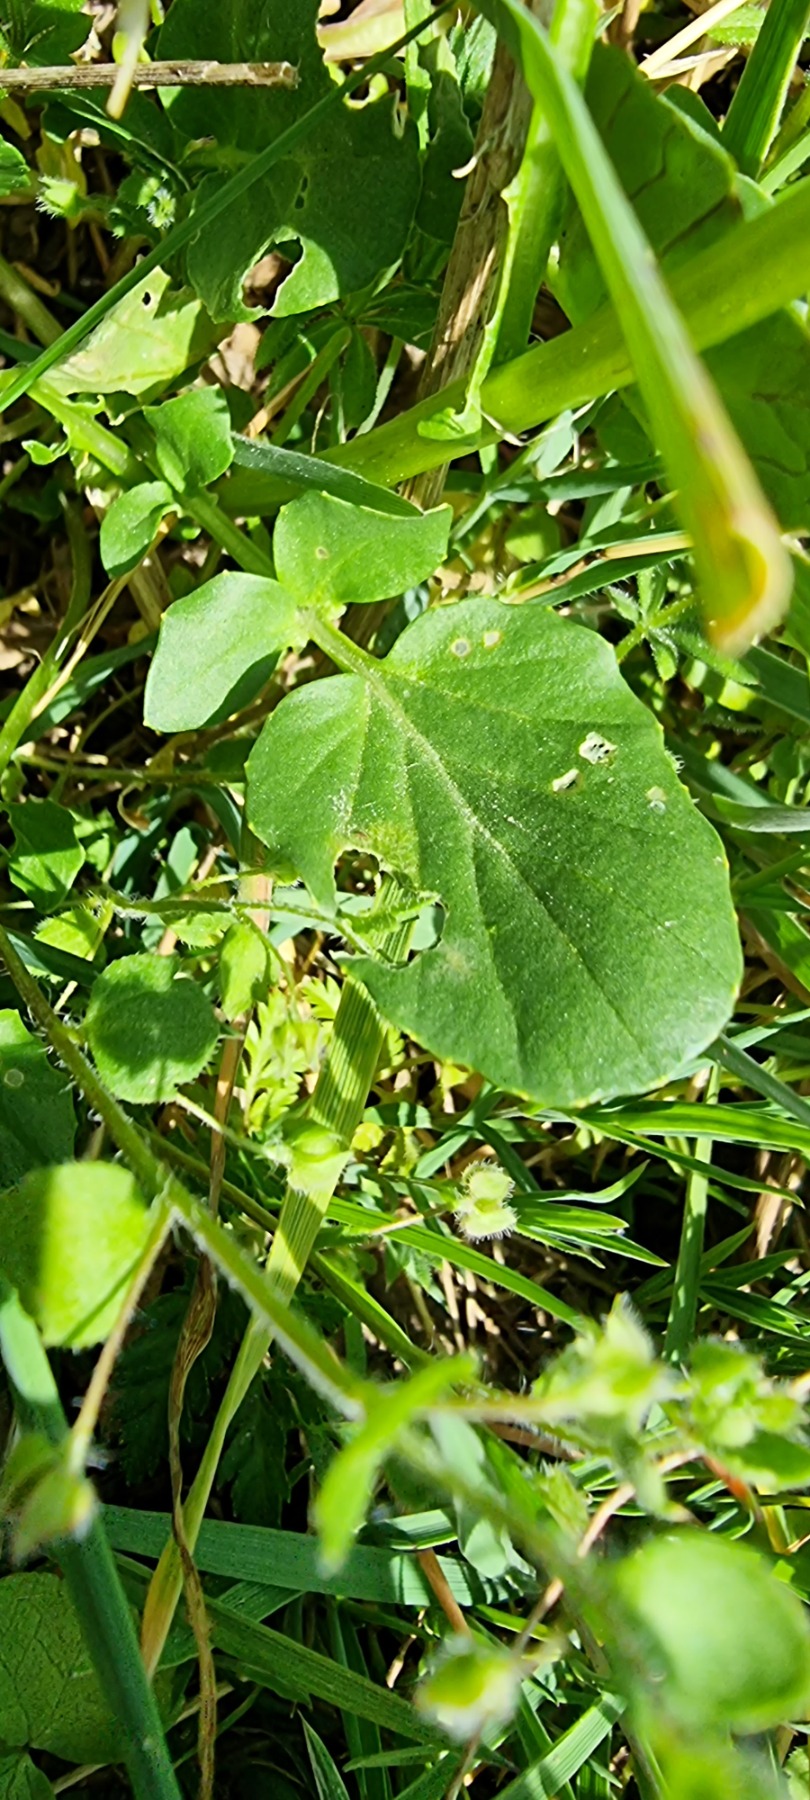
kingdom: Plantae
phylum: Tracheophyta
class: Magnoliopsida
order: Brassicales
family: Brassicaceae
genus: Barbarea
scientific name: Barbarea vulgaris
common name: Almindelig vinterkarse
